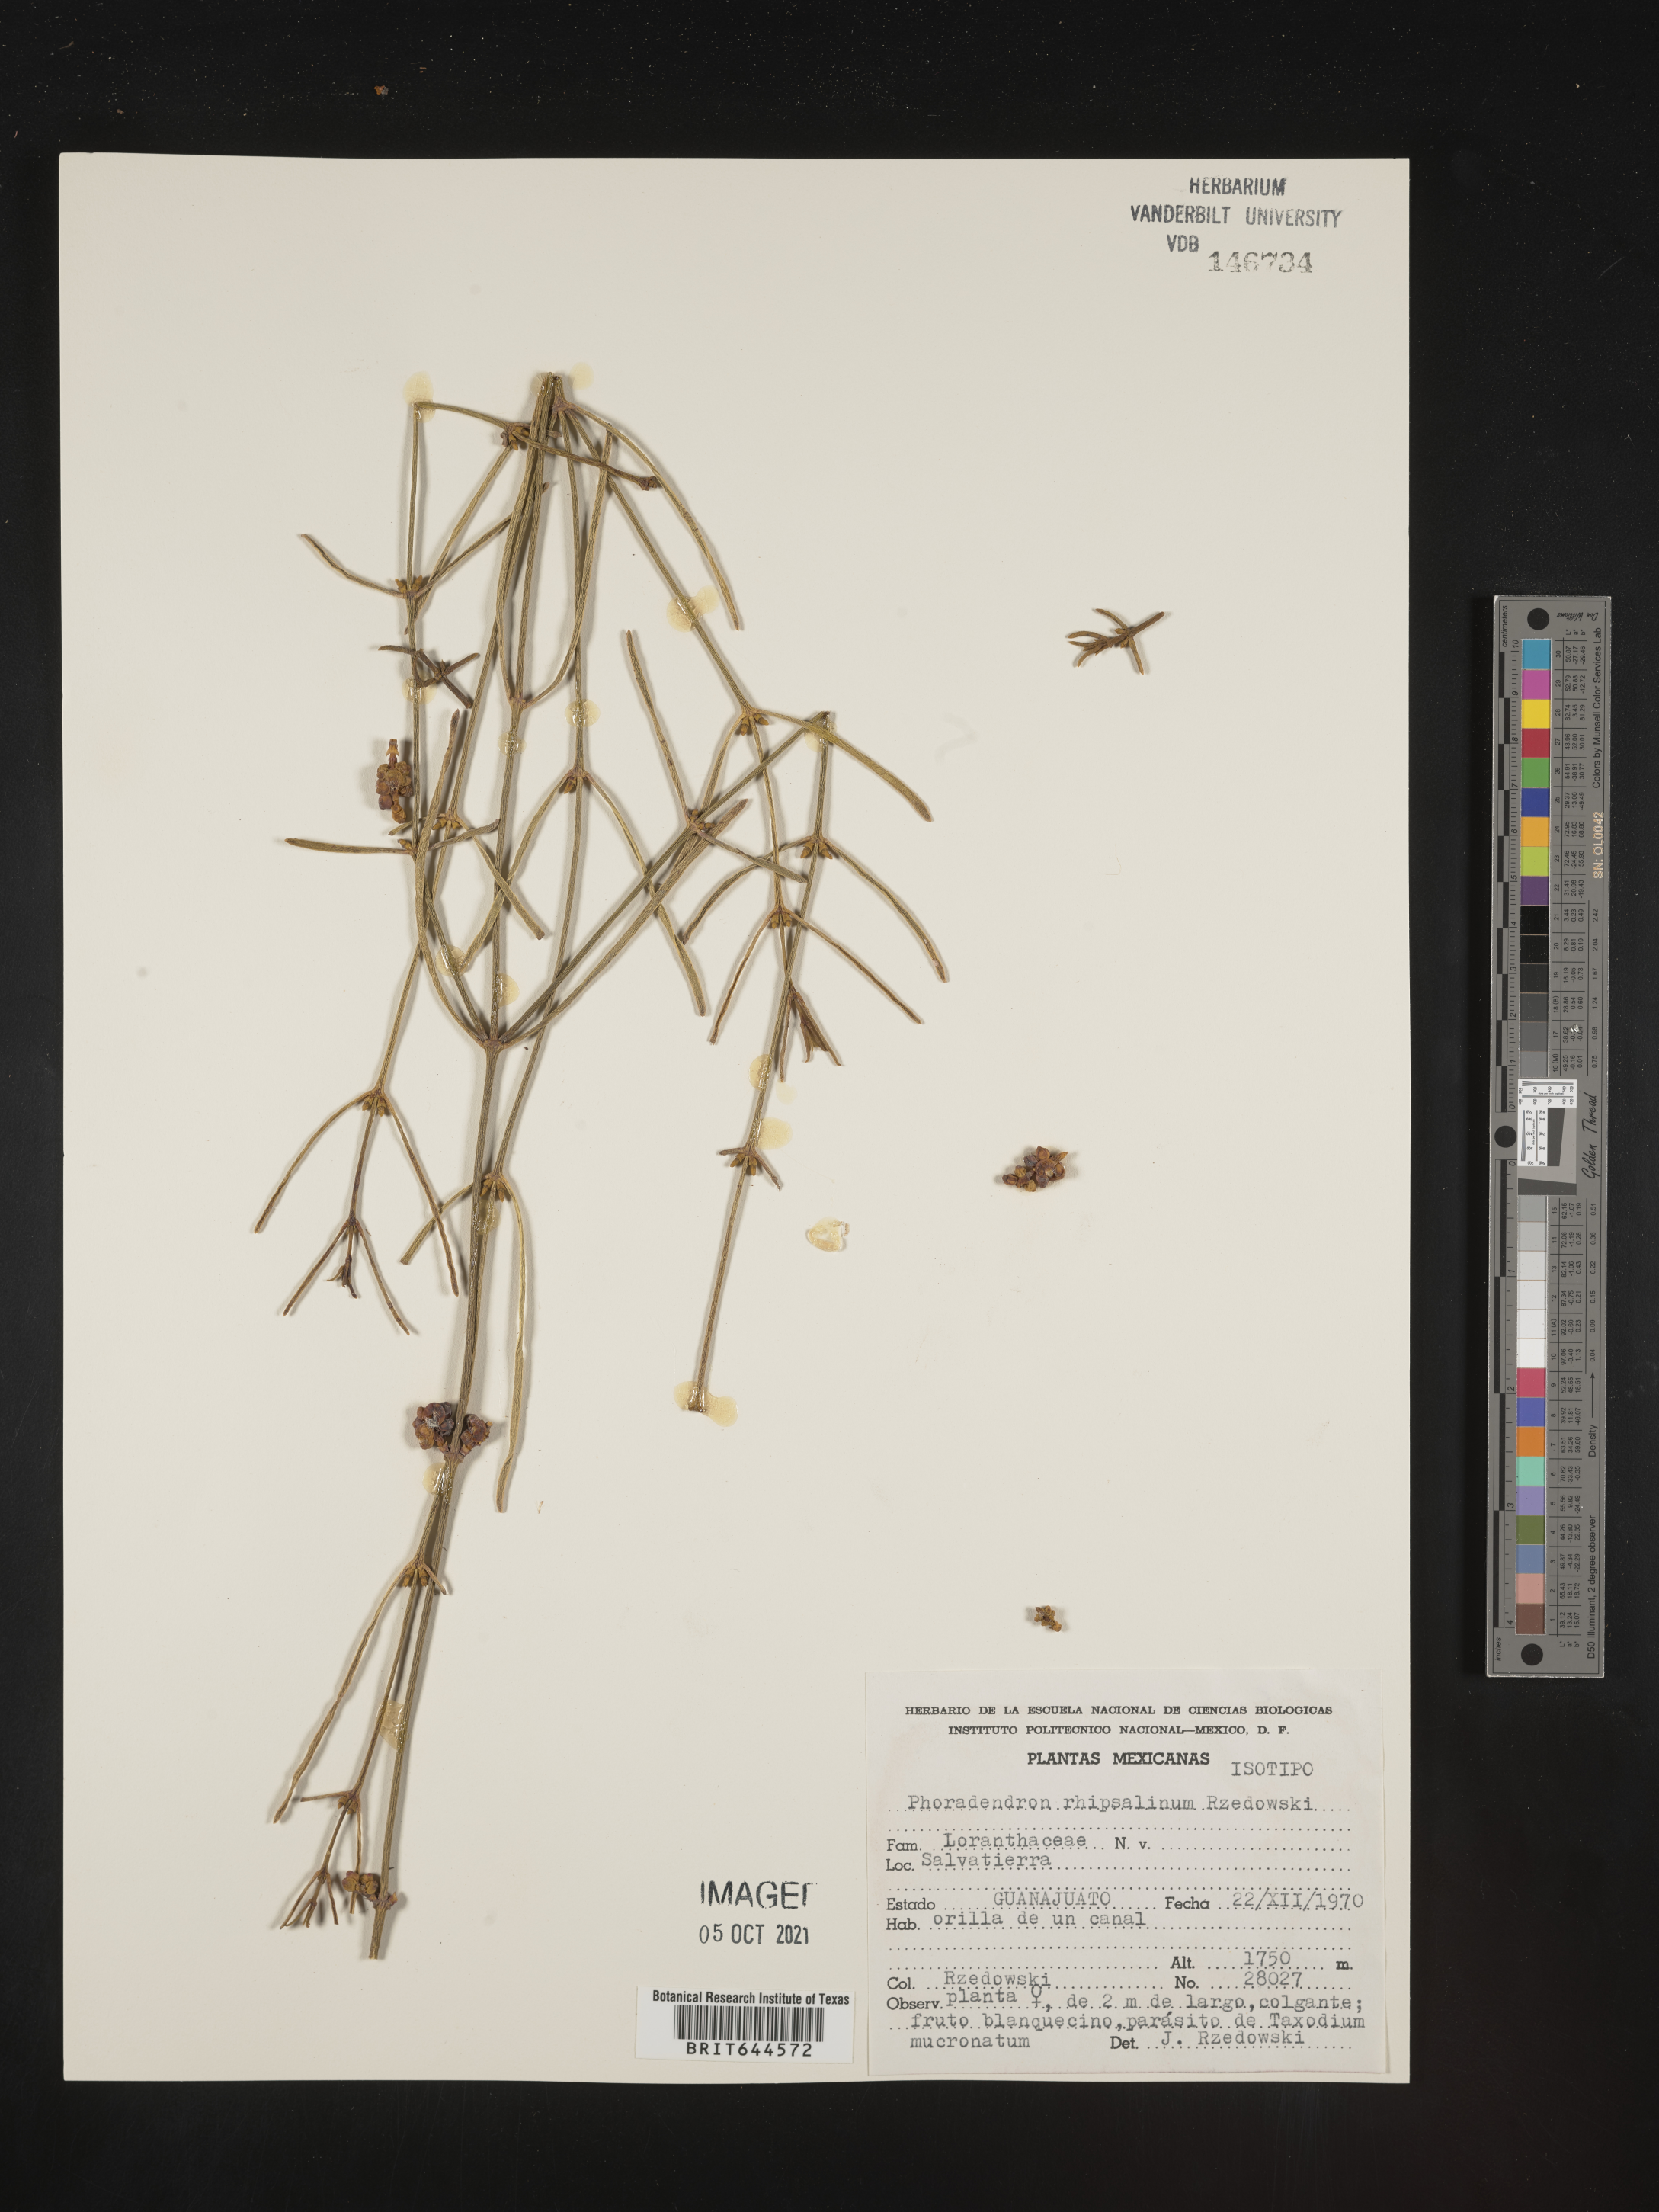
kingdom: Plantae
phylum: Tracheophyta
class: Magnoliopsida
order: Santalales
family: Viscaceae
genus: Phoradendron
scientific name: Phoradendron
